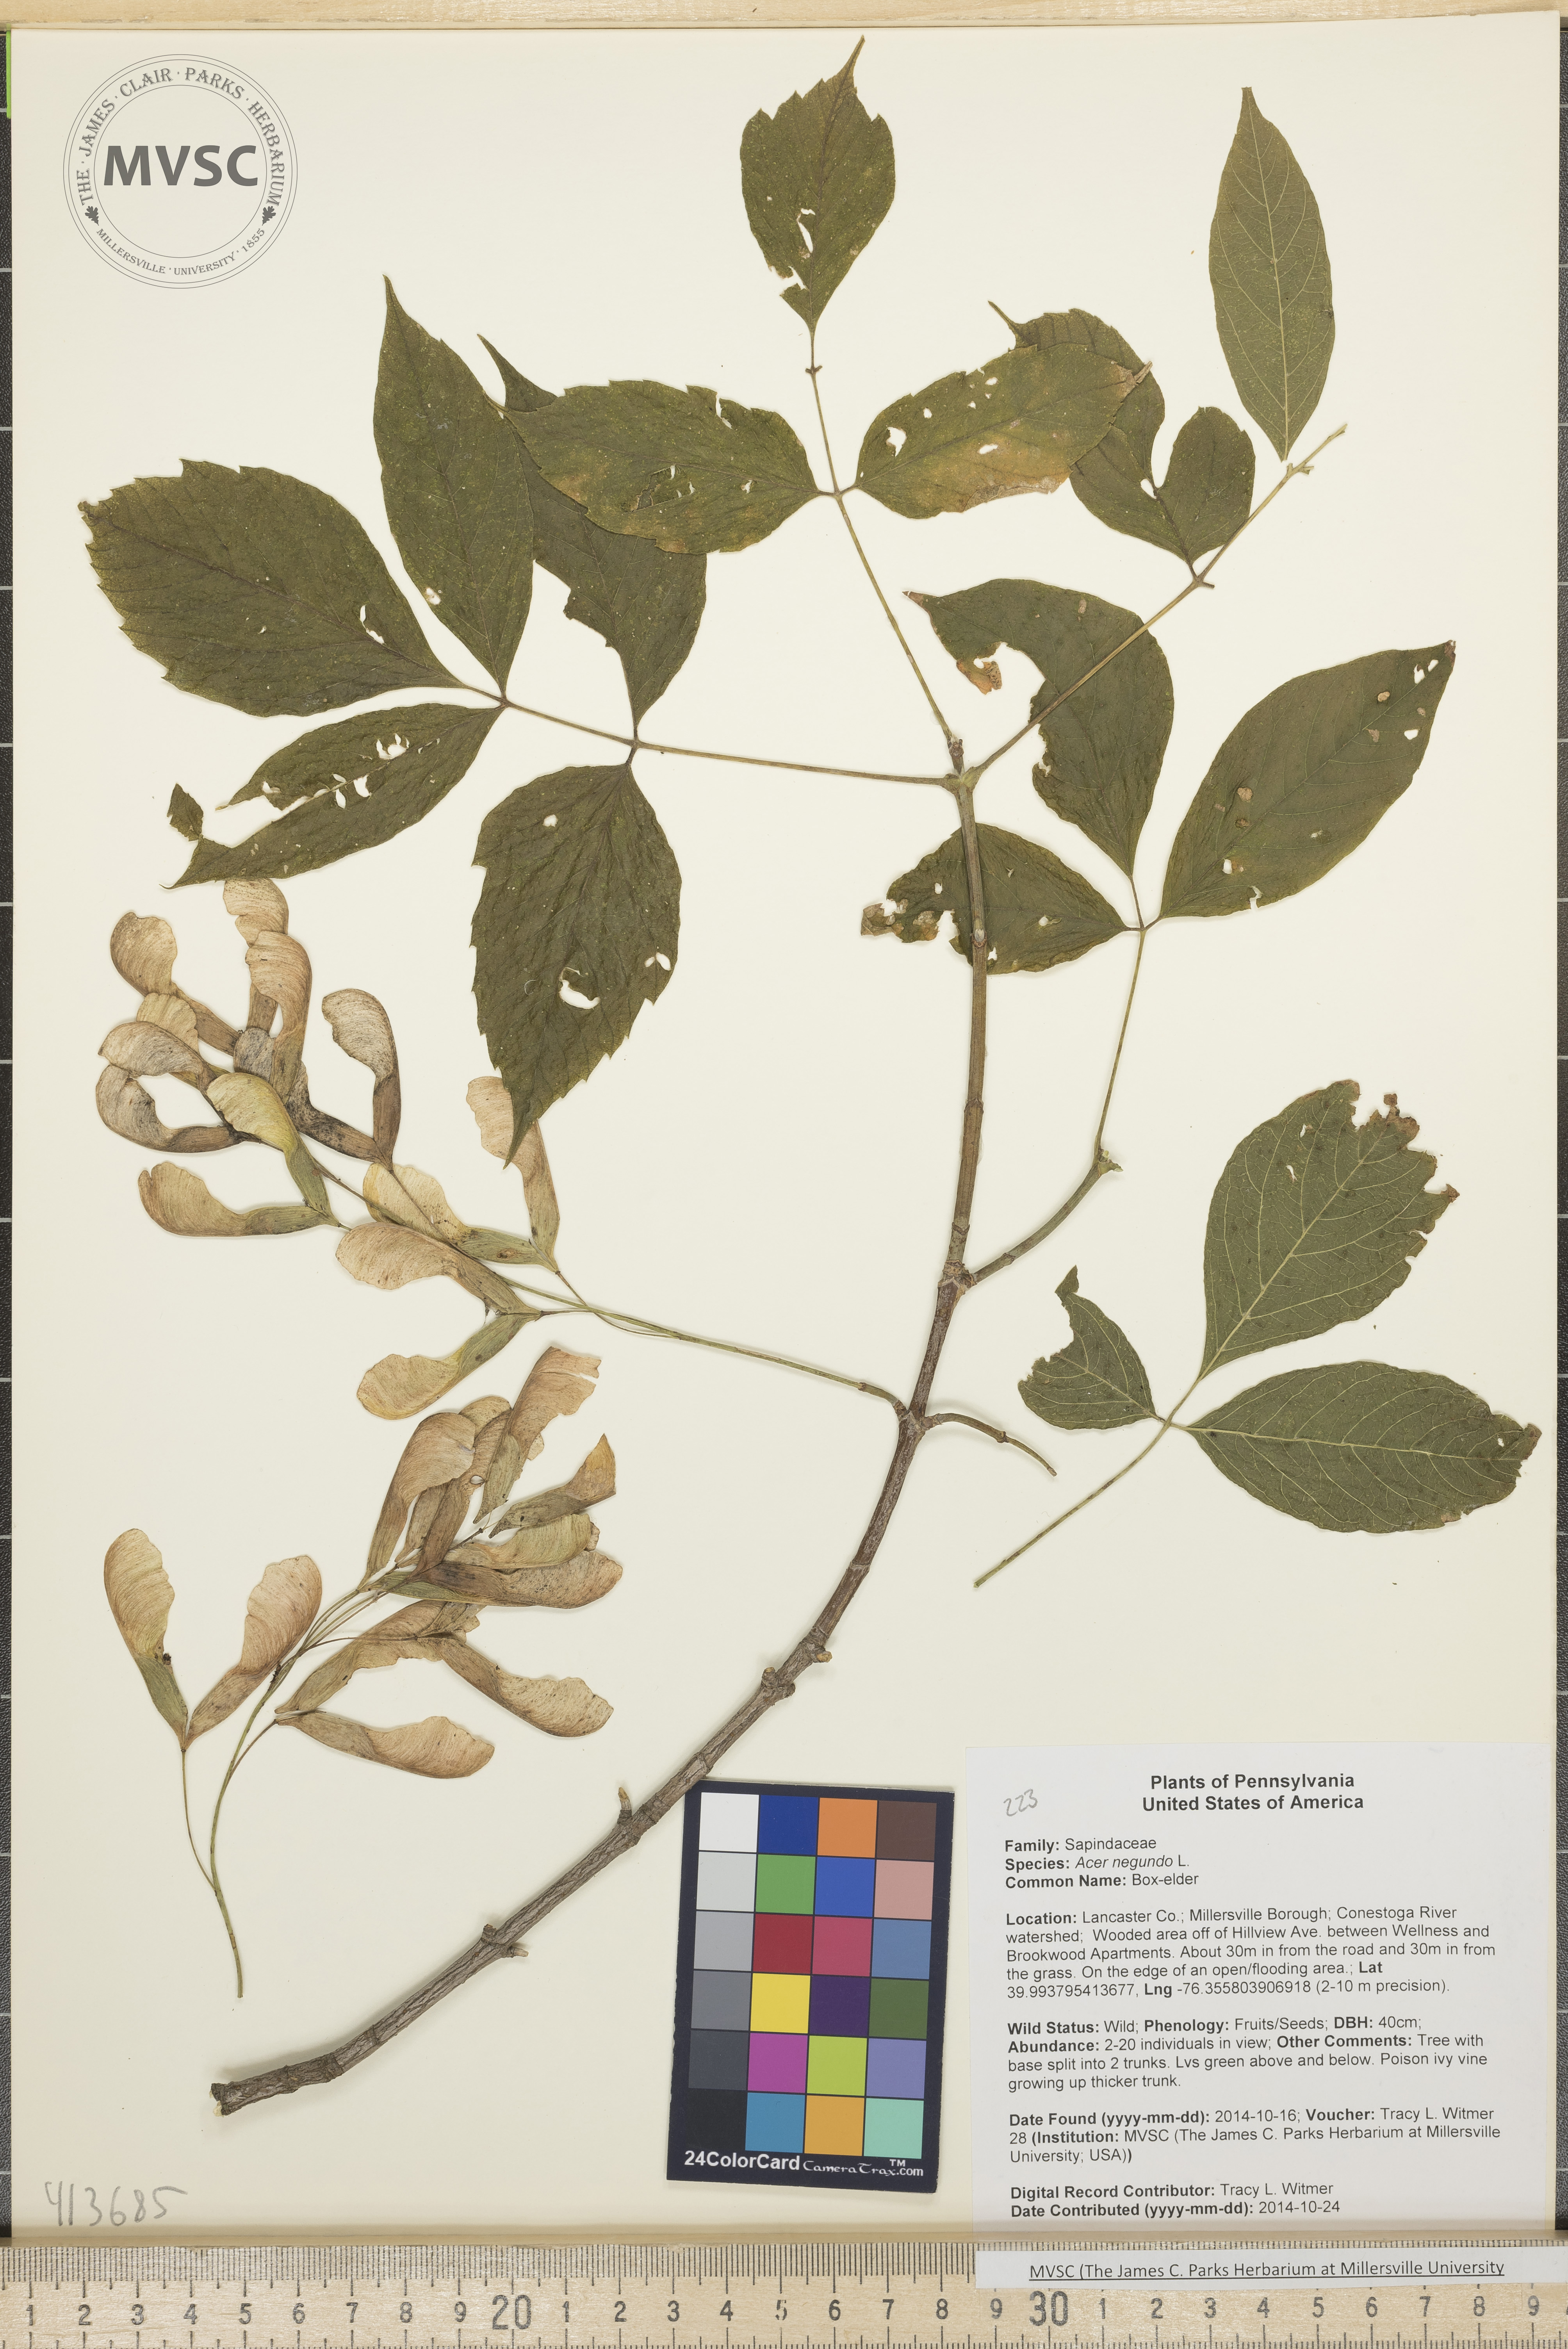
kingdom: Plantae
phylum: Tracheophyta
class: Magnoliopsida
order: Sapindales
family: Sapindaceae
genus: Acer
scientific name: Acer negundo
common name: Box-elder
